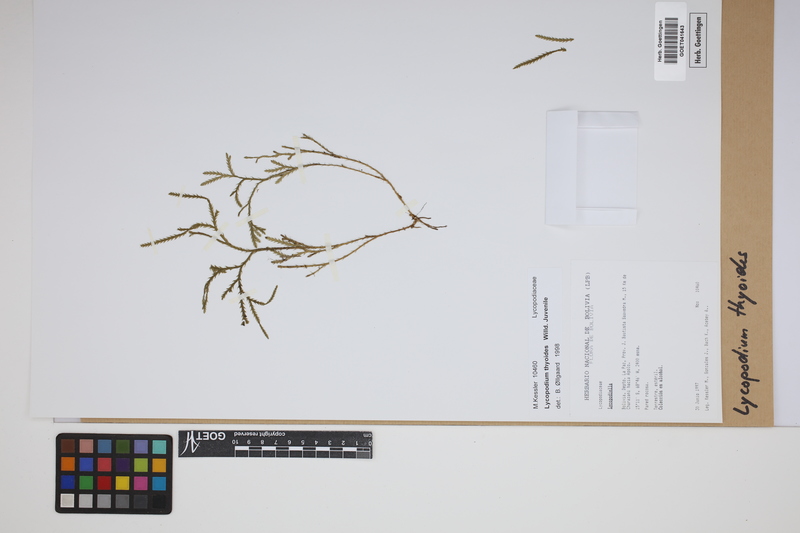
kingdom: Plantae
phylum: Tracheophyta
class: Lycopodiopsida
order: Lycopodiales
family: Lycopodiaceae
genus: Diphasiastrum
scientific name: Diphasiastrum thyoides
